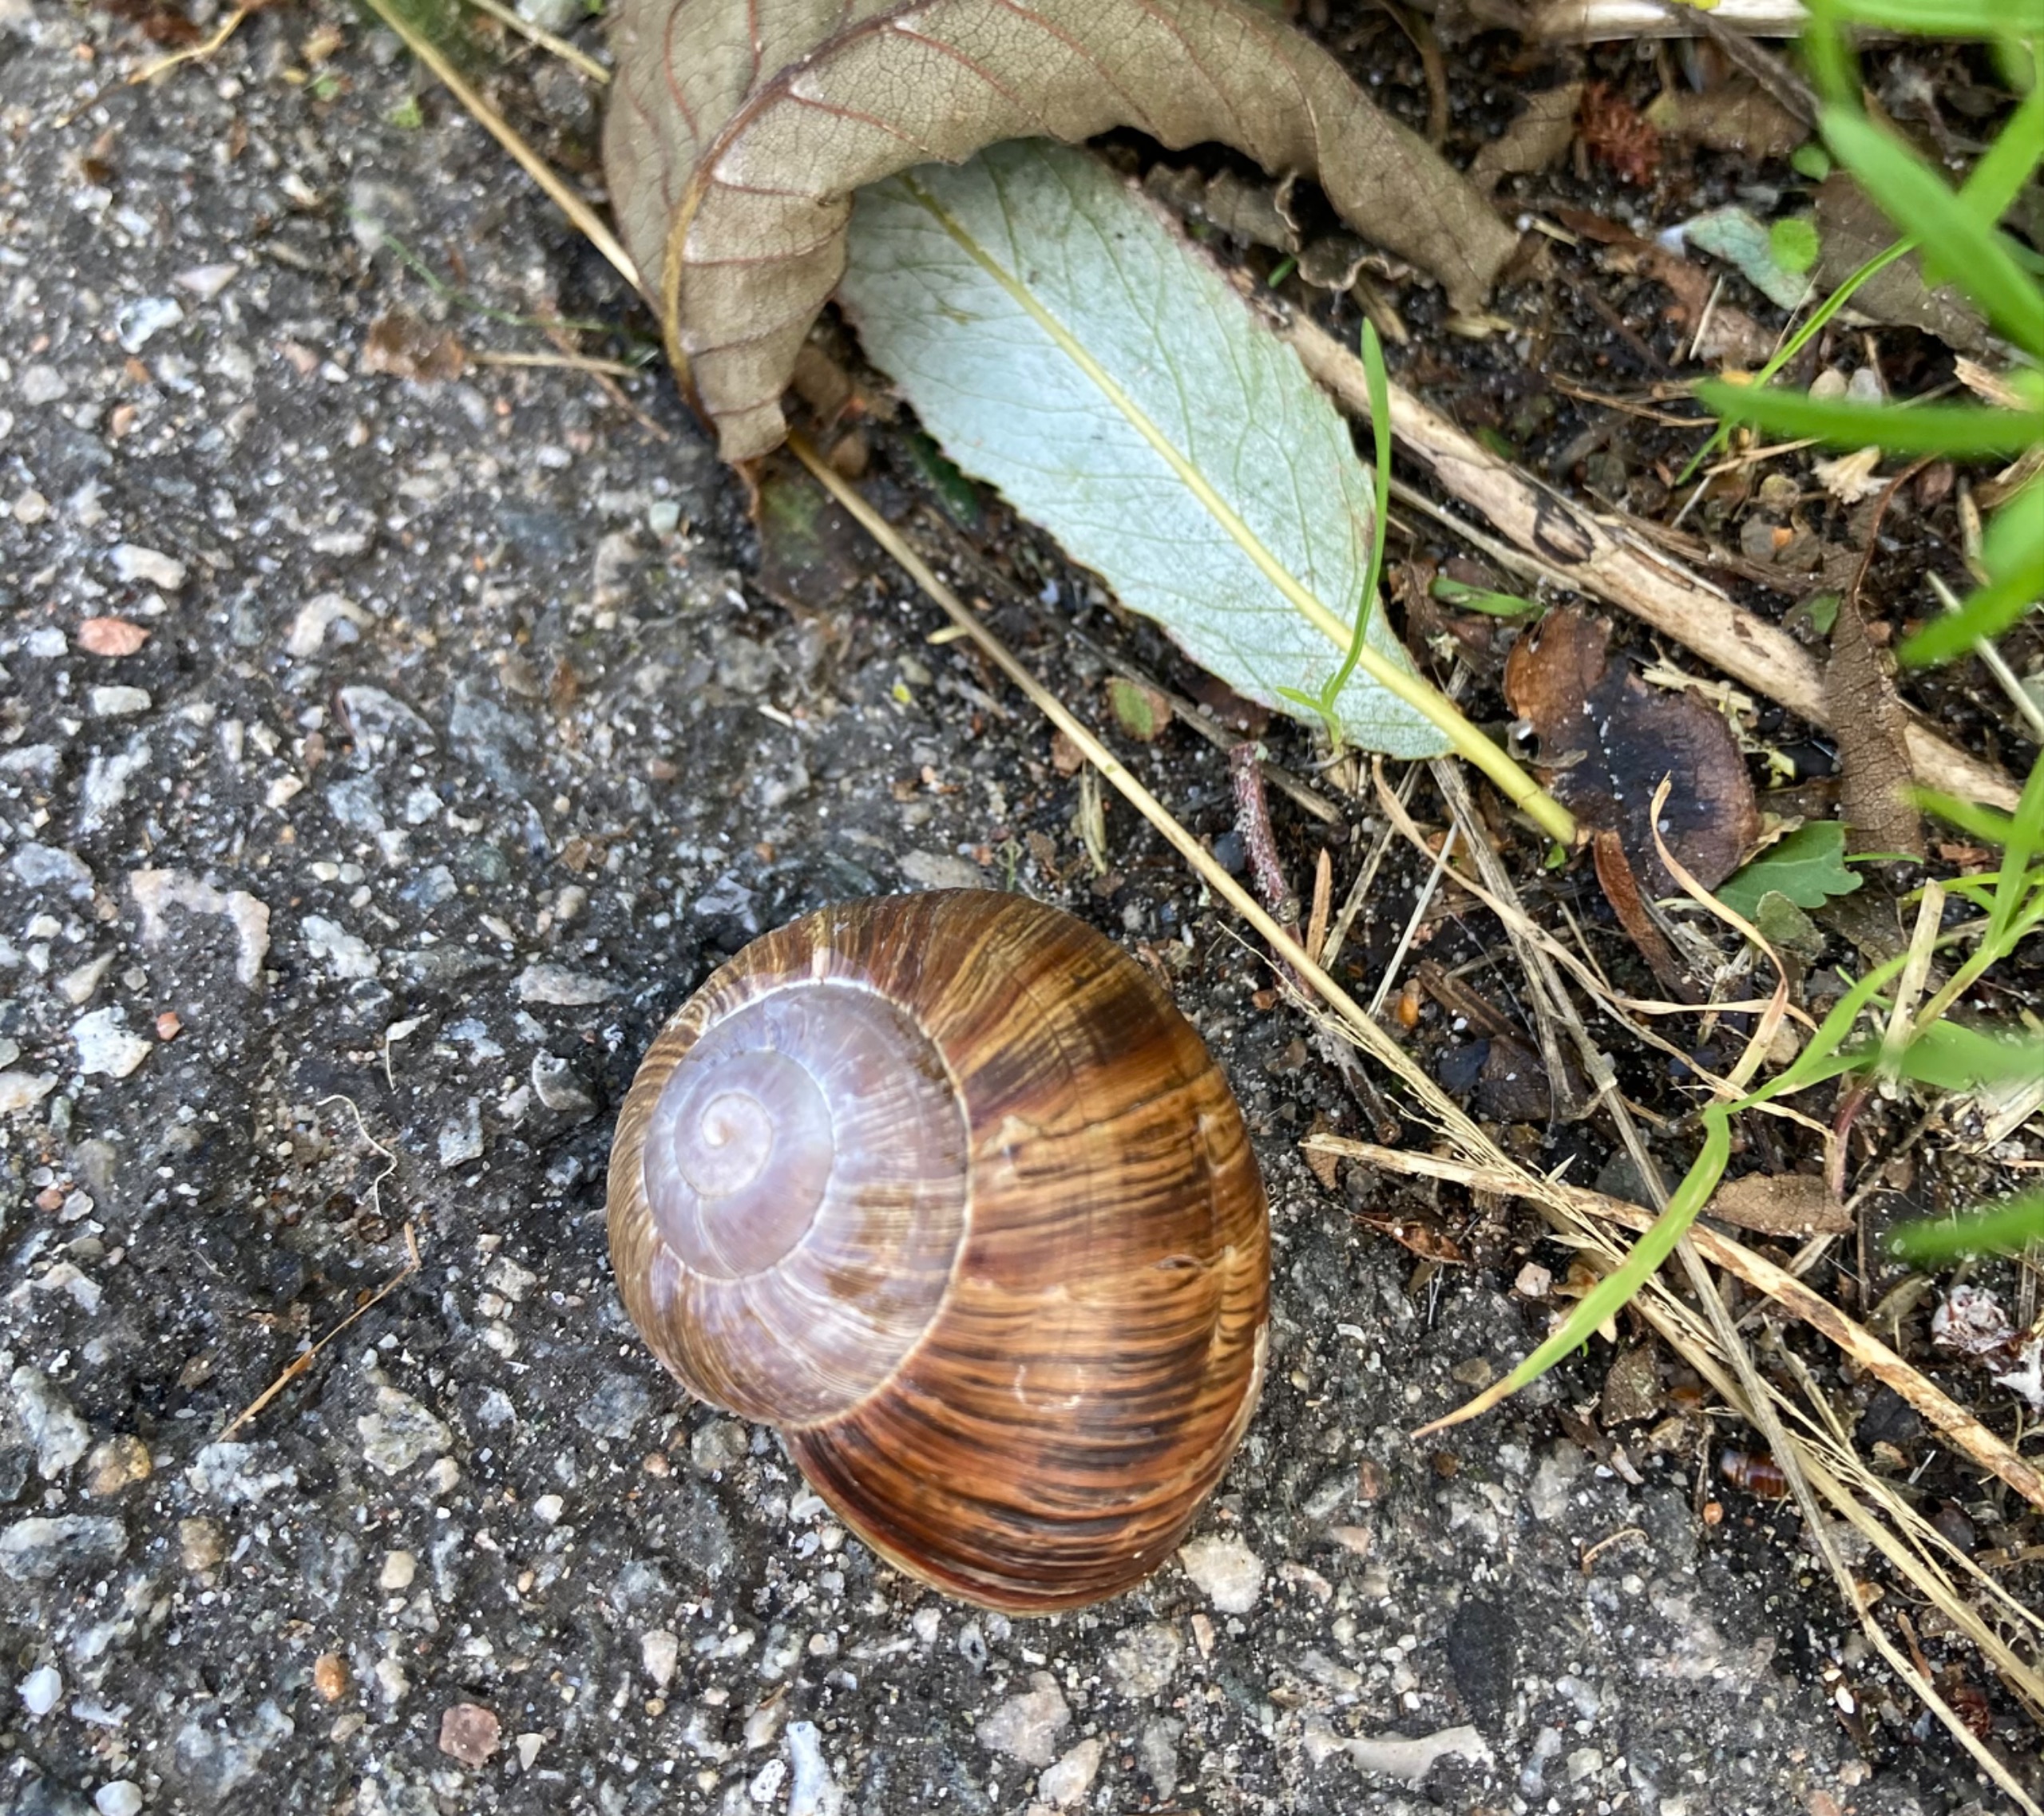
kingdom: Animalia
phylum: Mollusca
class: Gastropoda
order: Stylommatophora
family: Helicidae
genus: Helix
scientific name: Helix pomatia
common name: Vinbjergsnegl
